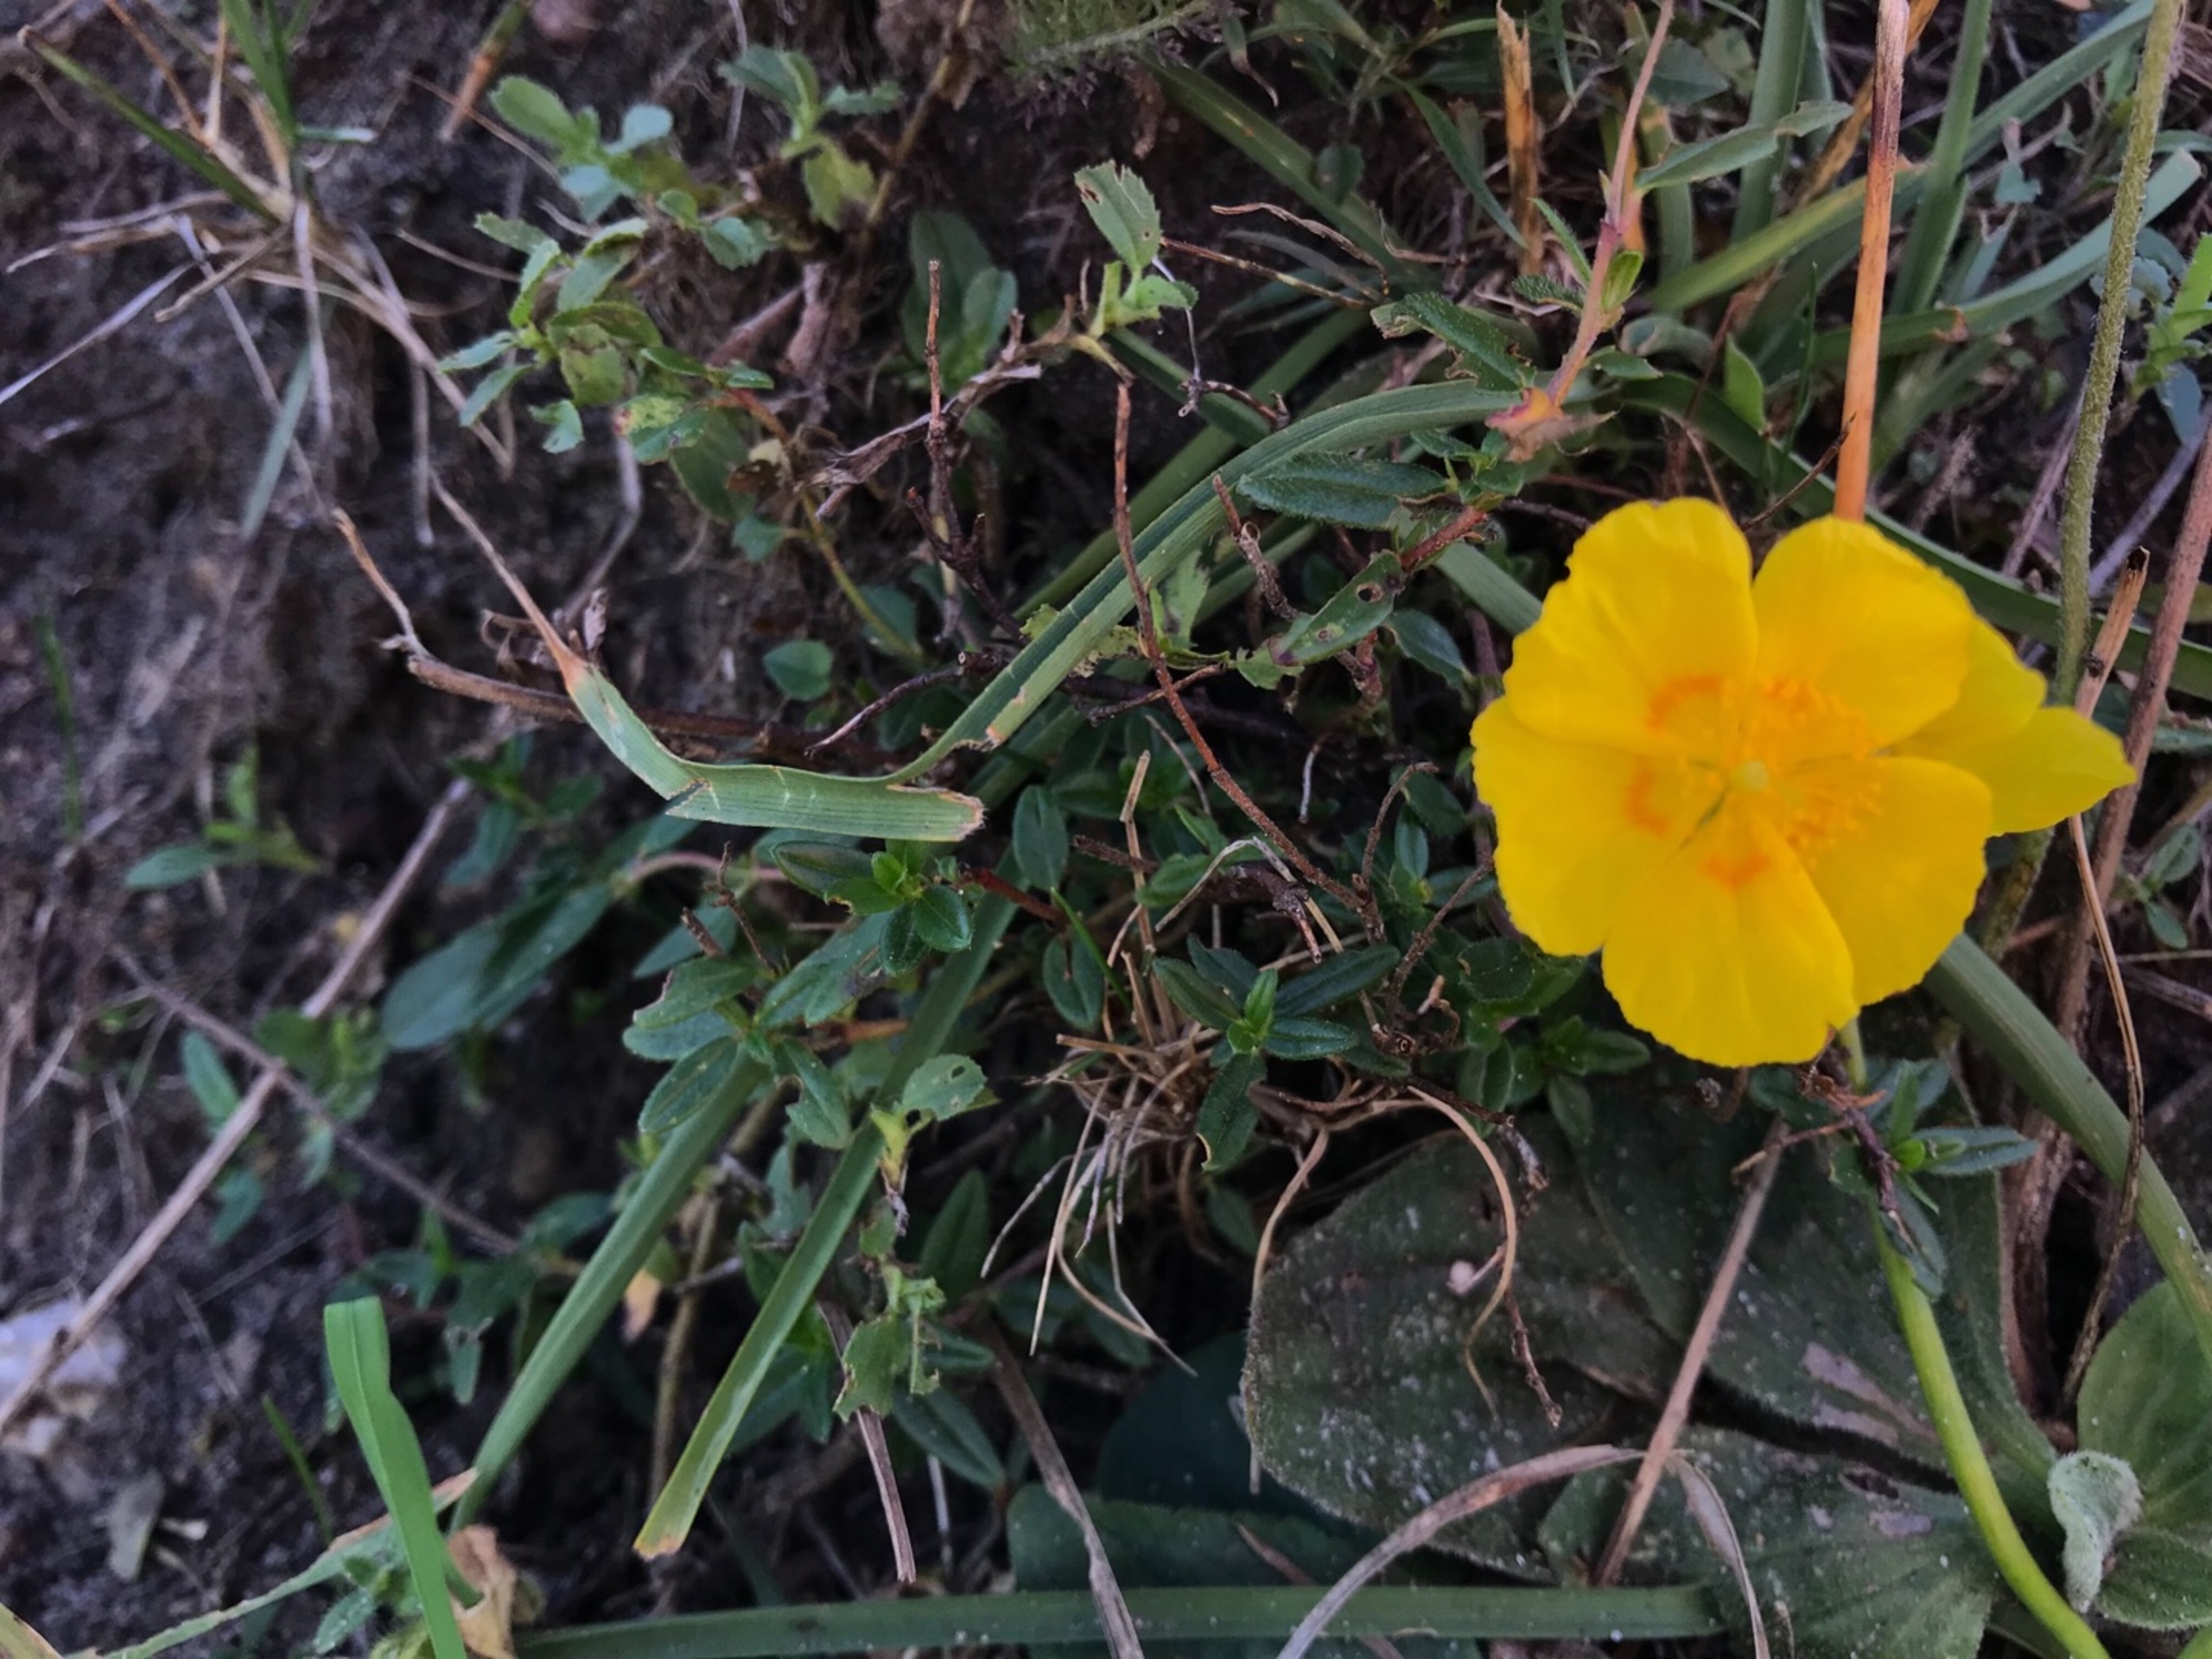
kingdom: Plantae
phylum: Tracheophyta
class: Magnoliopsida
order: Malvales
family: Cistaceae
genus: Helianthemum
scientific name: Helianthemum nummularium
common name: Soløje
